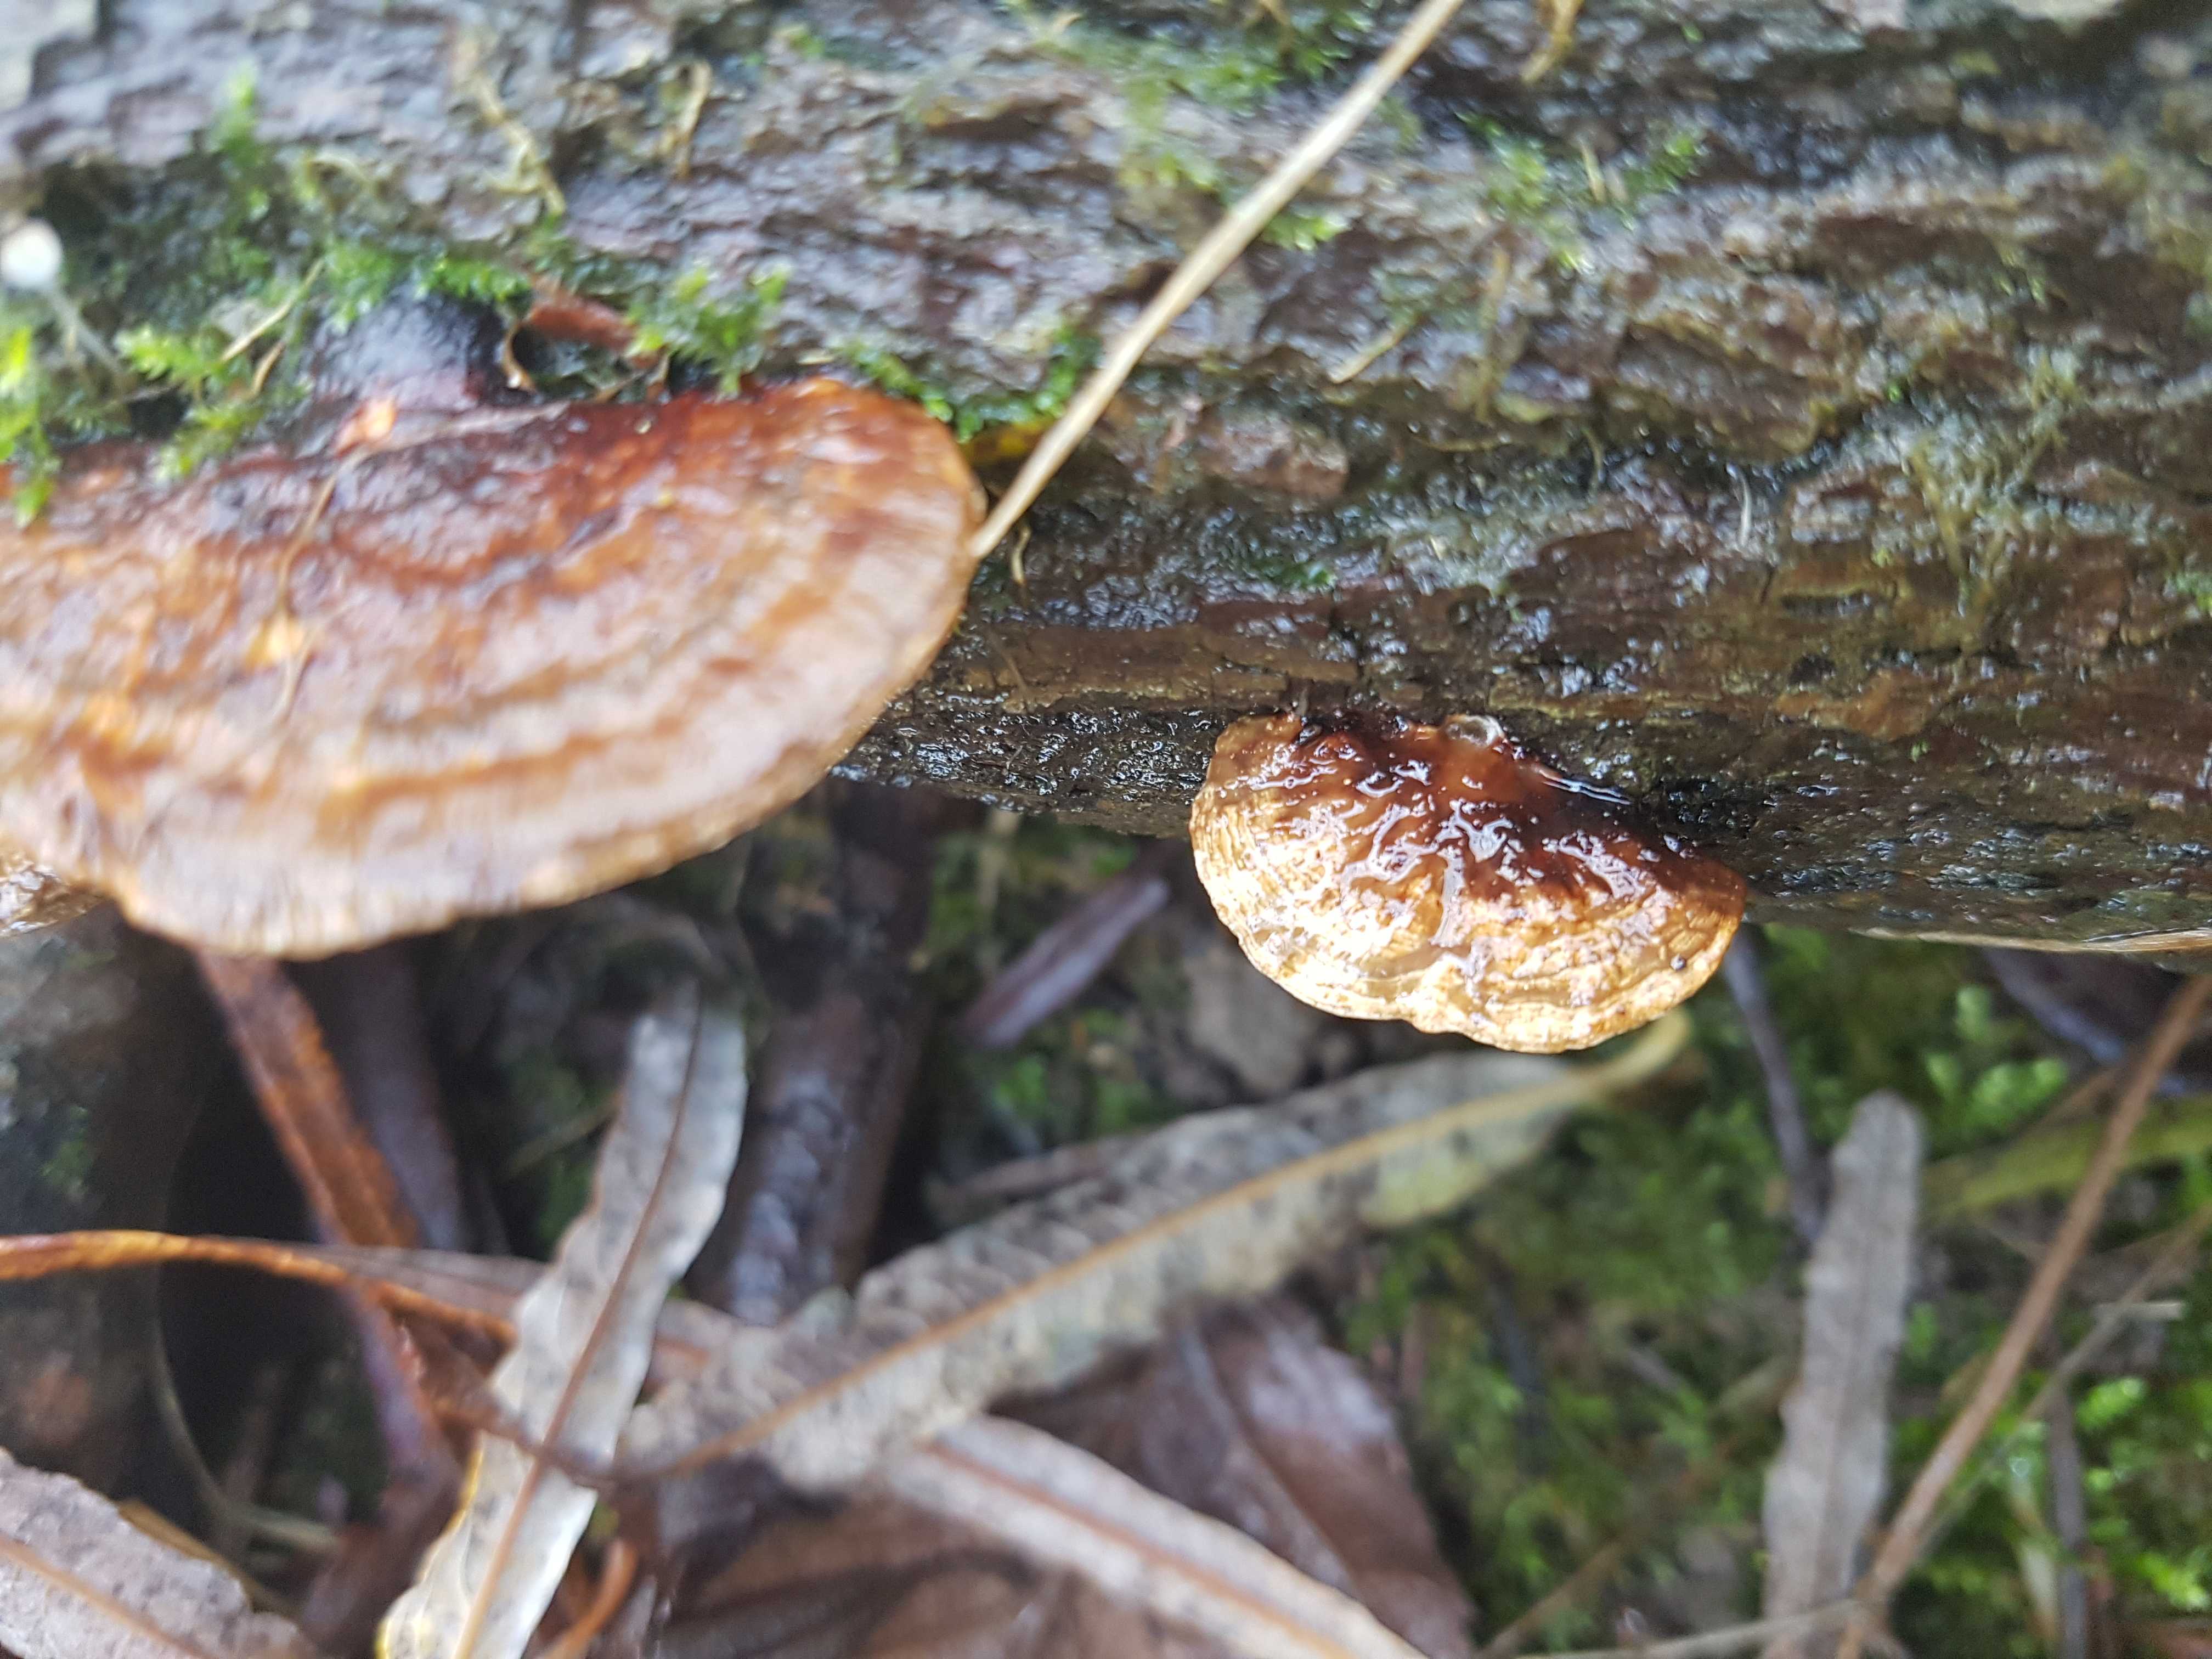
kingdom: Fungi
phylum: Basidiomycota
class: Agaricomycetes
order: Polyporales
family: Polyporaceae
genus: Daedaleopsis
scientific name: Daedaleopsis confragosa
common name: rødmende læderporesvamp
